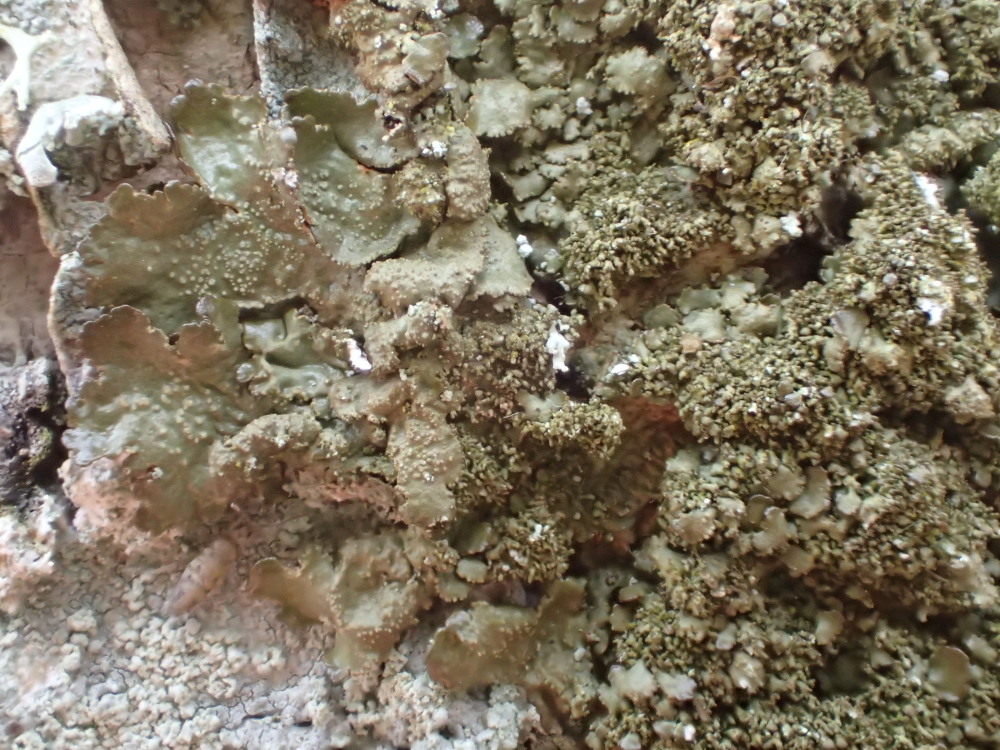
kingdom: Fungi
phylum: Ascomycota
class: Lecanoromycetes
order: Lecanorales
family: Parmeliaceae
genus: Melanohalea
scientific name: Melanohalea exasperatula
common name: kølle-skållav
